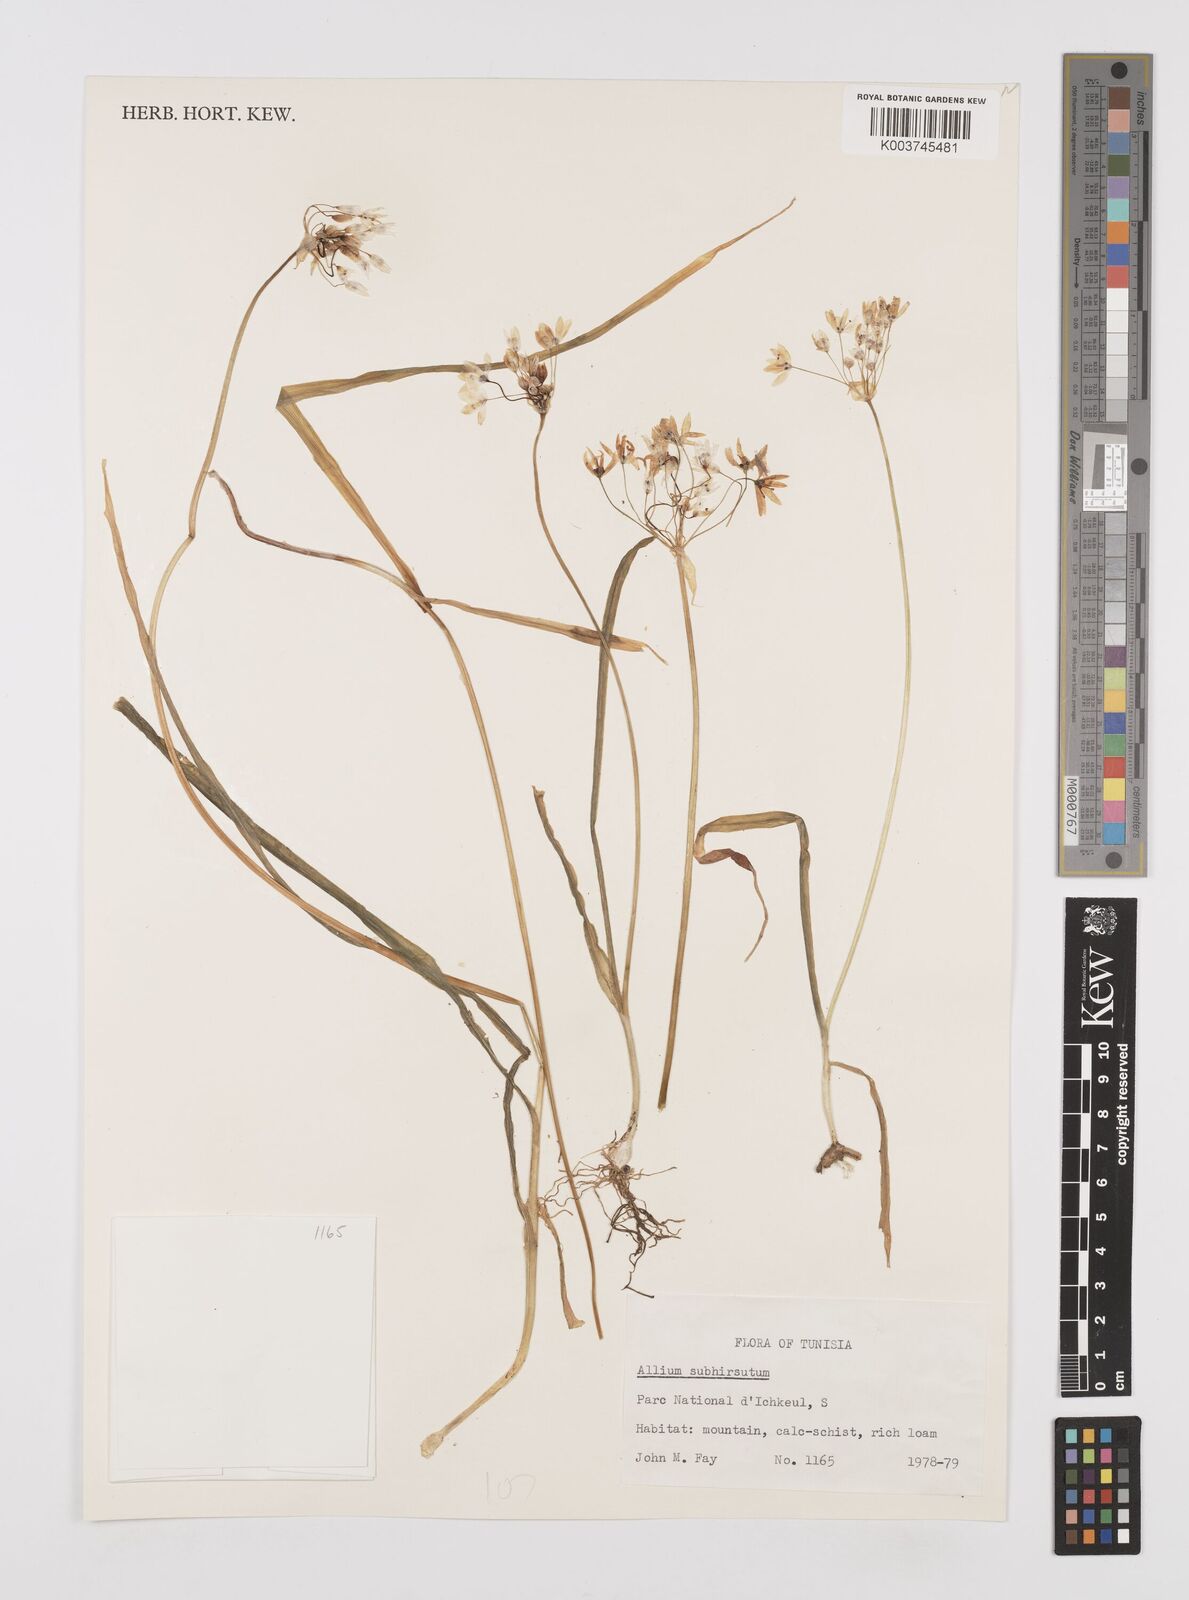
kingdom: Plantae
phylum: Tracheophyta
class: Liliopsida
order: Asparagales
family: Amaryllidaceae
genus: Allium
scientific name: Allium subvillosum
